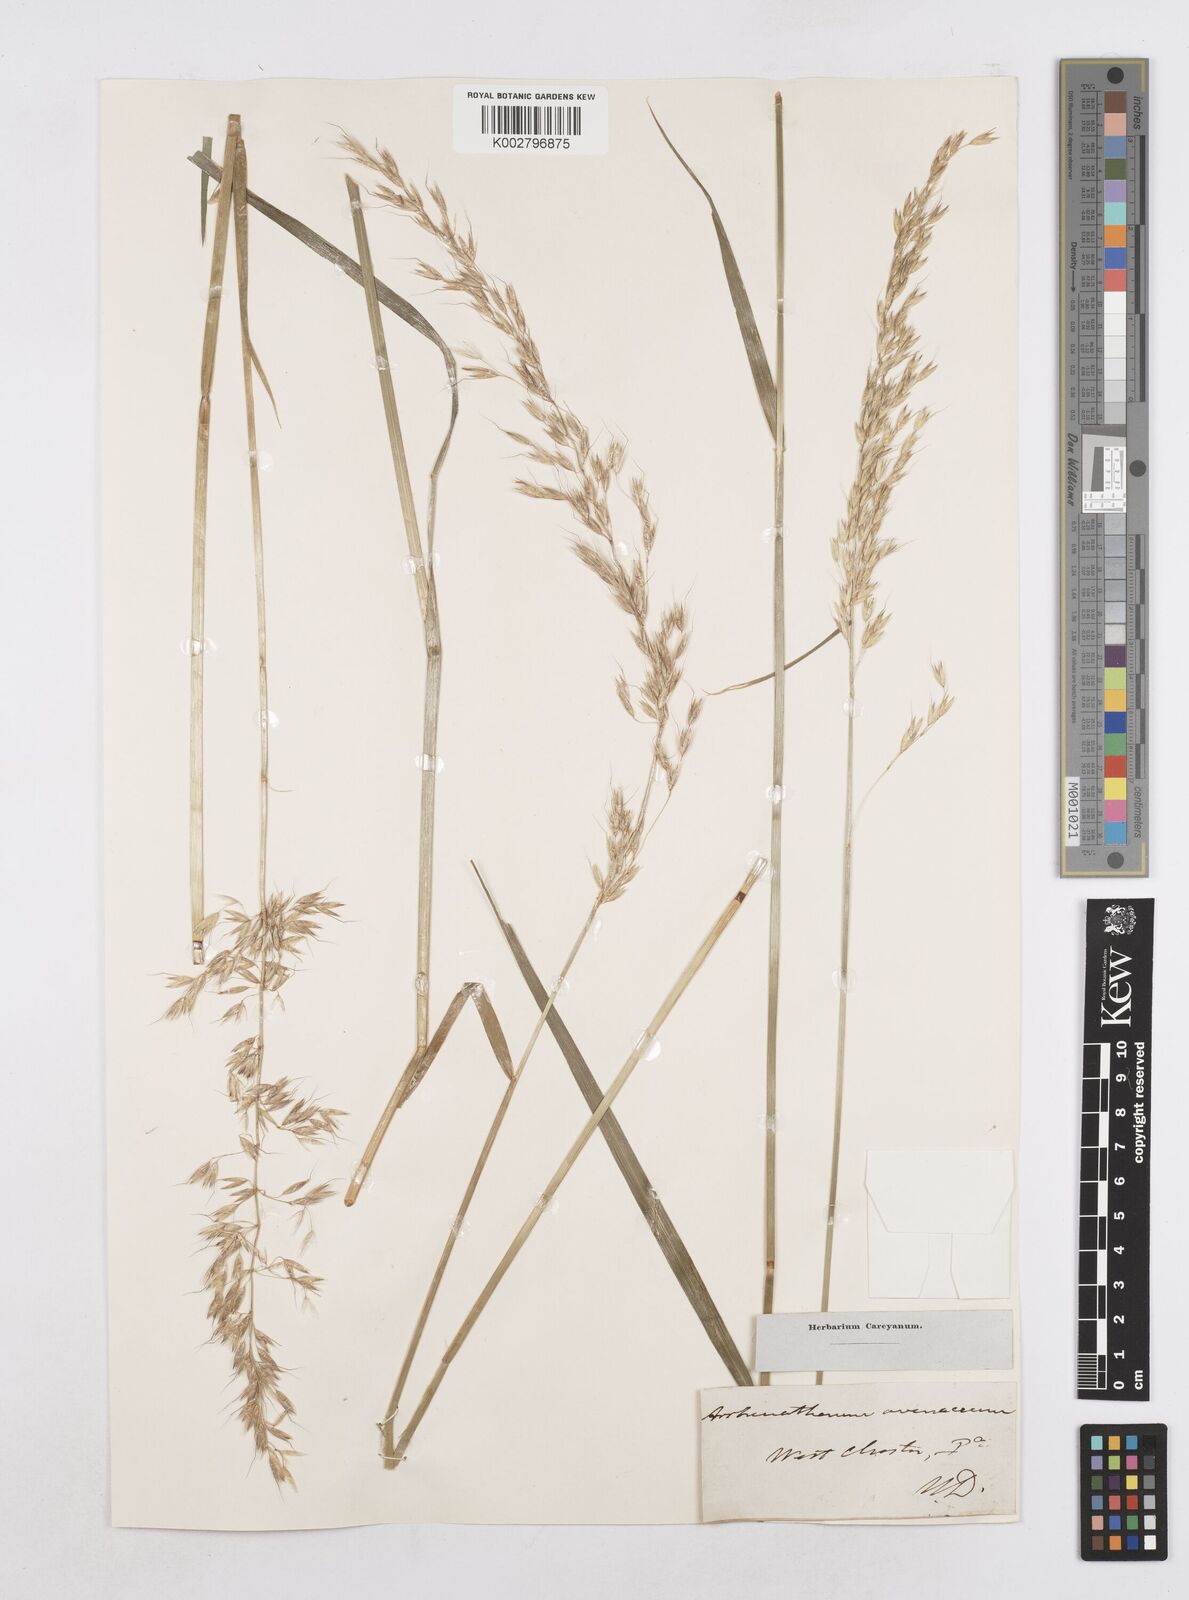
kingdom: Plantae
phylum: Tracheophyta
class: Liliopsida
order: Poales
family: Poaceae
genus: Arrhenatherum
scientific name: Arrhenatherum elatius
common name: Tall oatgrass
